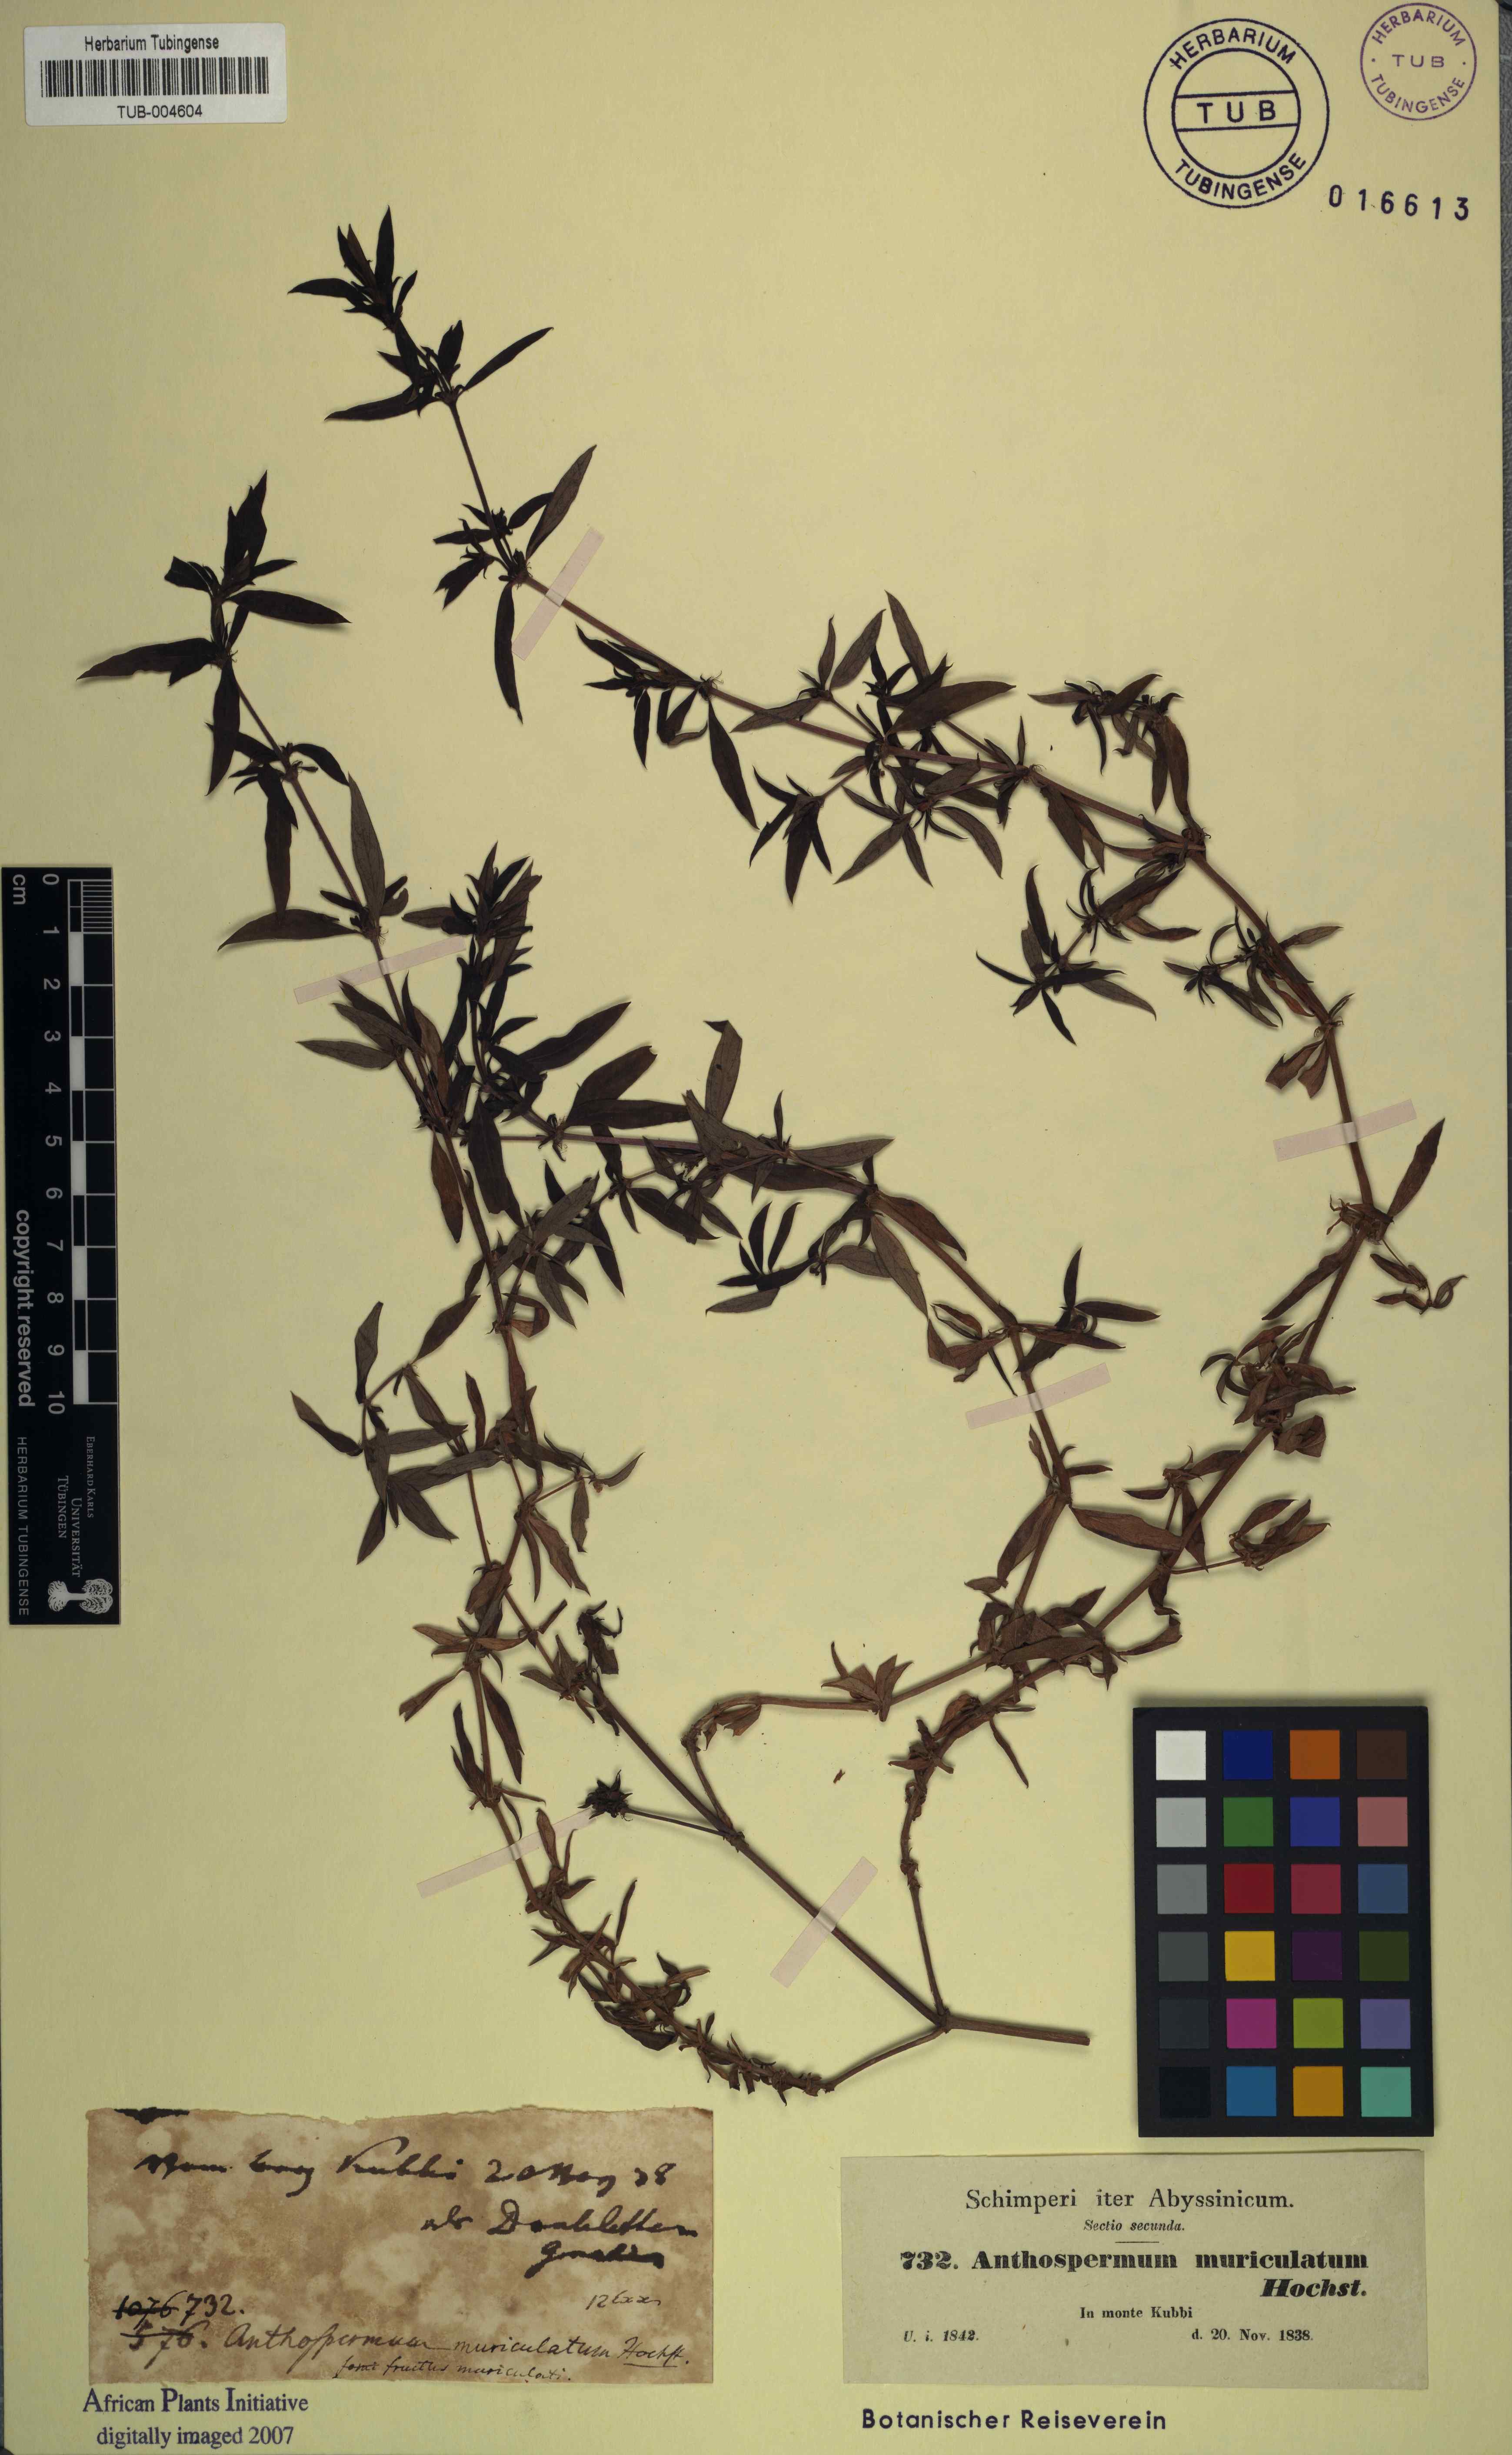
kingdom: Plantae
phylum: Tracheophyta
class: Magnoliopsida
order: Gentianales
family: Rubiaceae
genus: Anthospermum
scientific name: Anthospermum herbaceum
